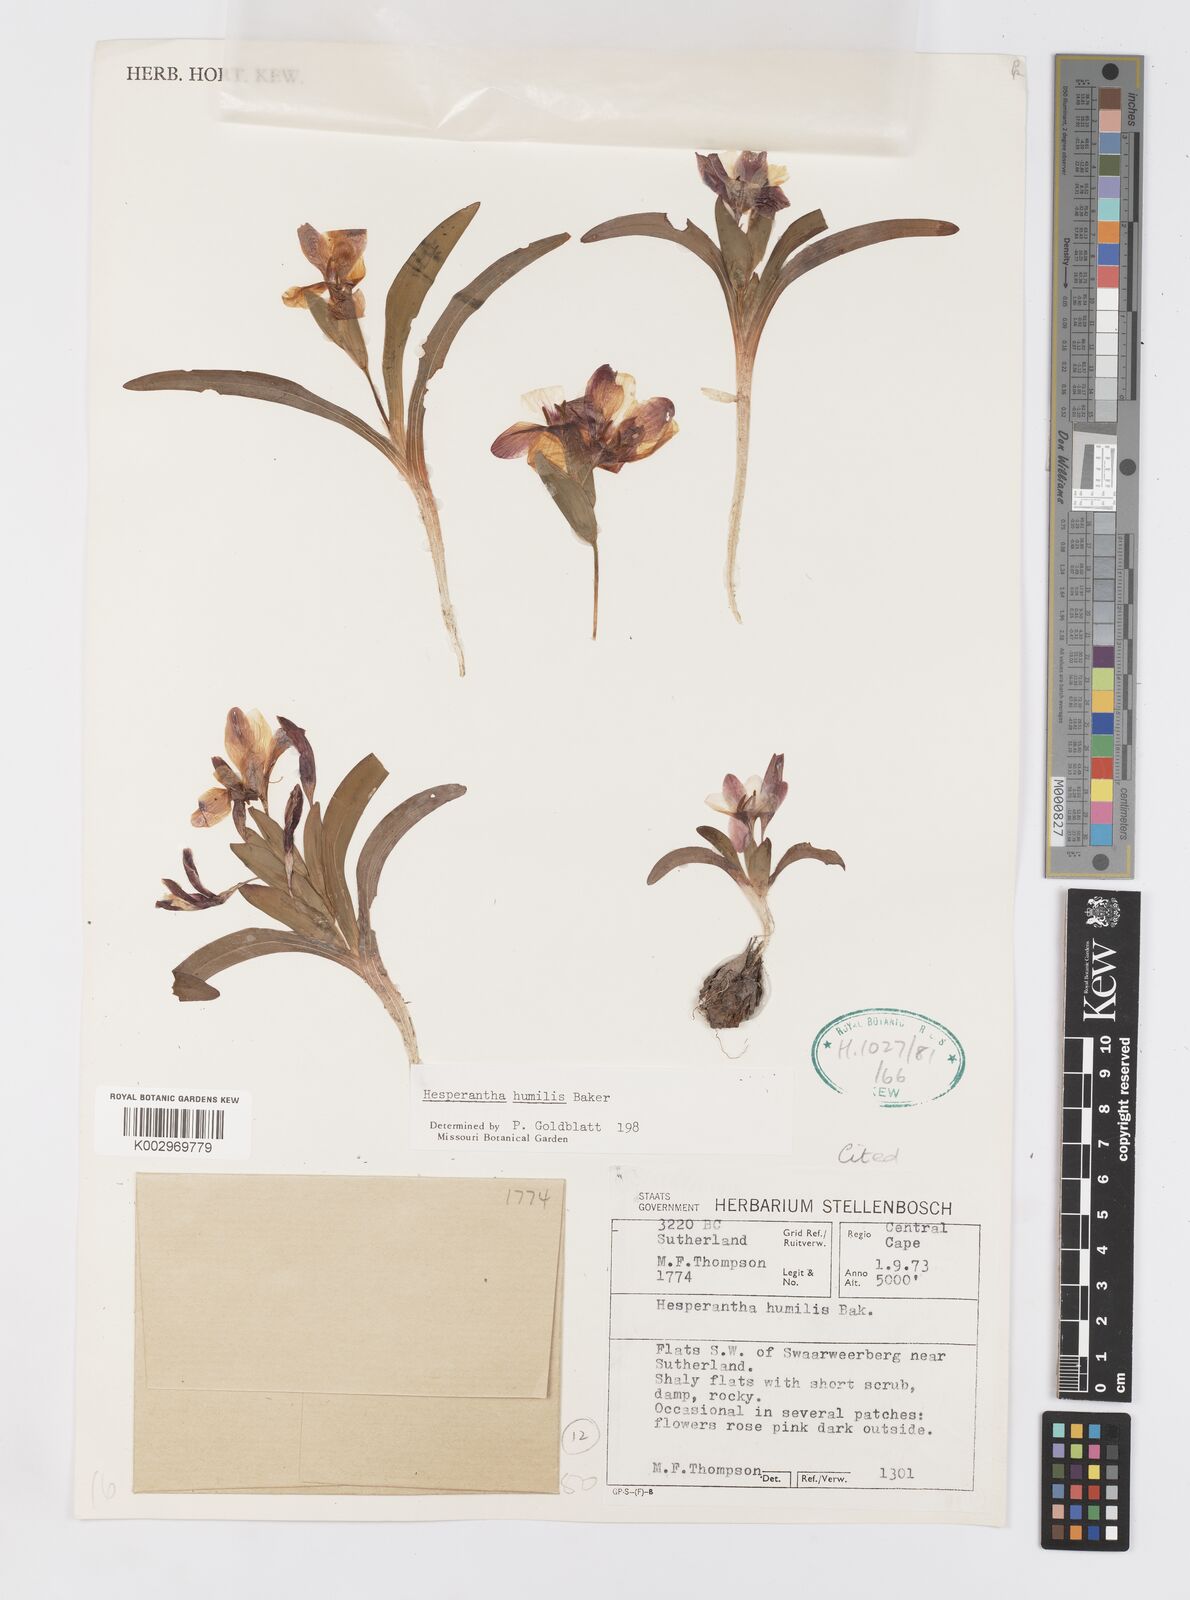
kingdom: Plantae
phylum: Tracheophyta
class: Liliopsida
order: Asparagales
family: Iridaceae
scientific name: Iridaceae
